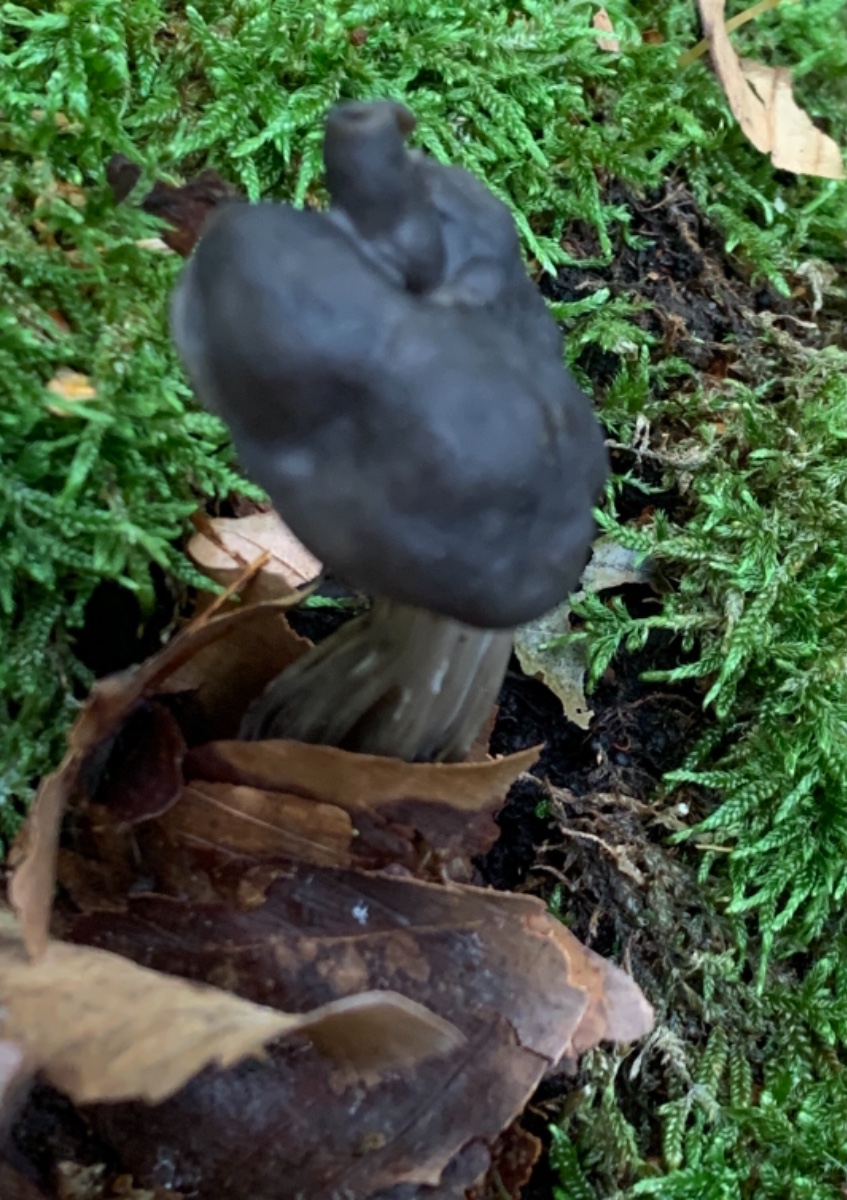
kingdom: Fungi
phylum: Ascomycota
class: Pezizomycetes
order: Pezizales
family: Helvellaceae
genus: Helvella
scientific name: Helvella lacunosa
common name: grubet foldhat
